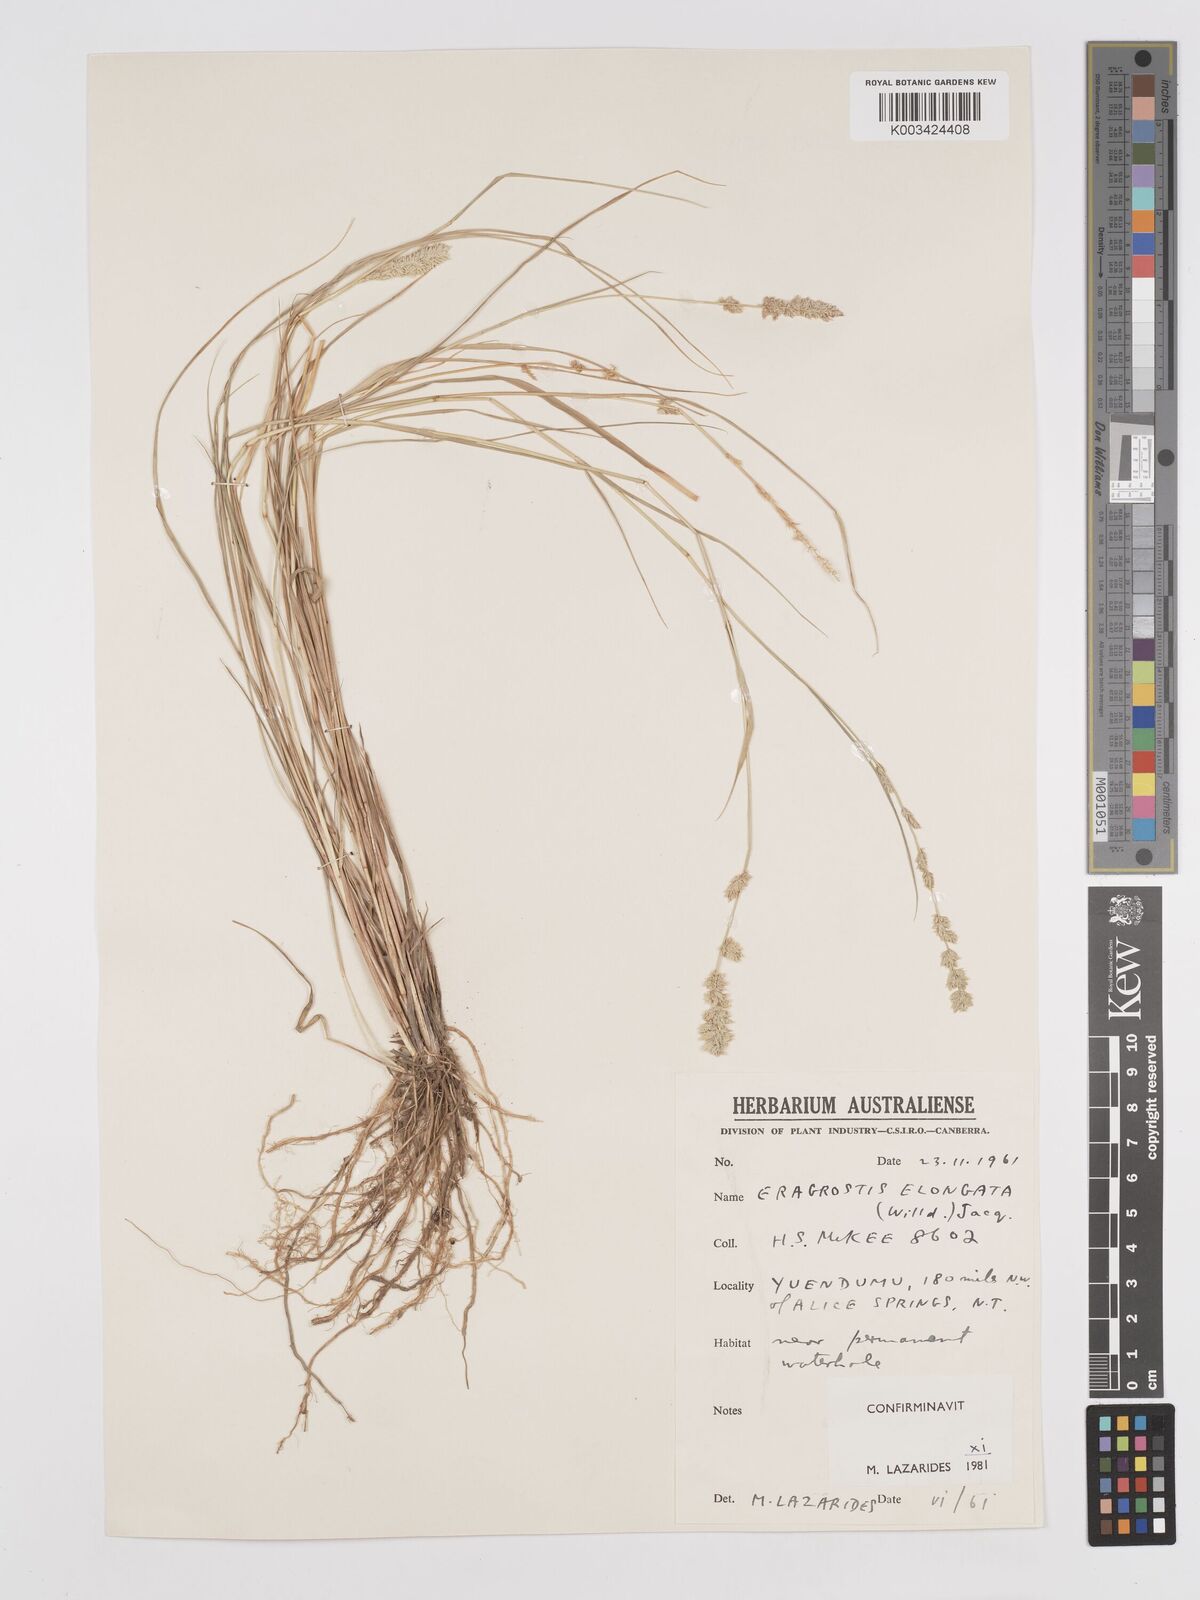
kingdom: Plantae
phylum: Tracheophyta
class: Liliopsida
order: Poales
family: Poaceae
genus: Eragrostis
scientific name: Eragrostis elongata
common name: Long lovegrass
